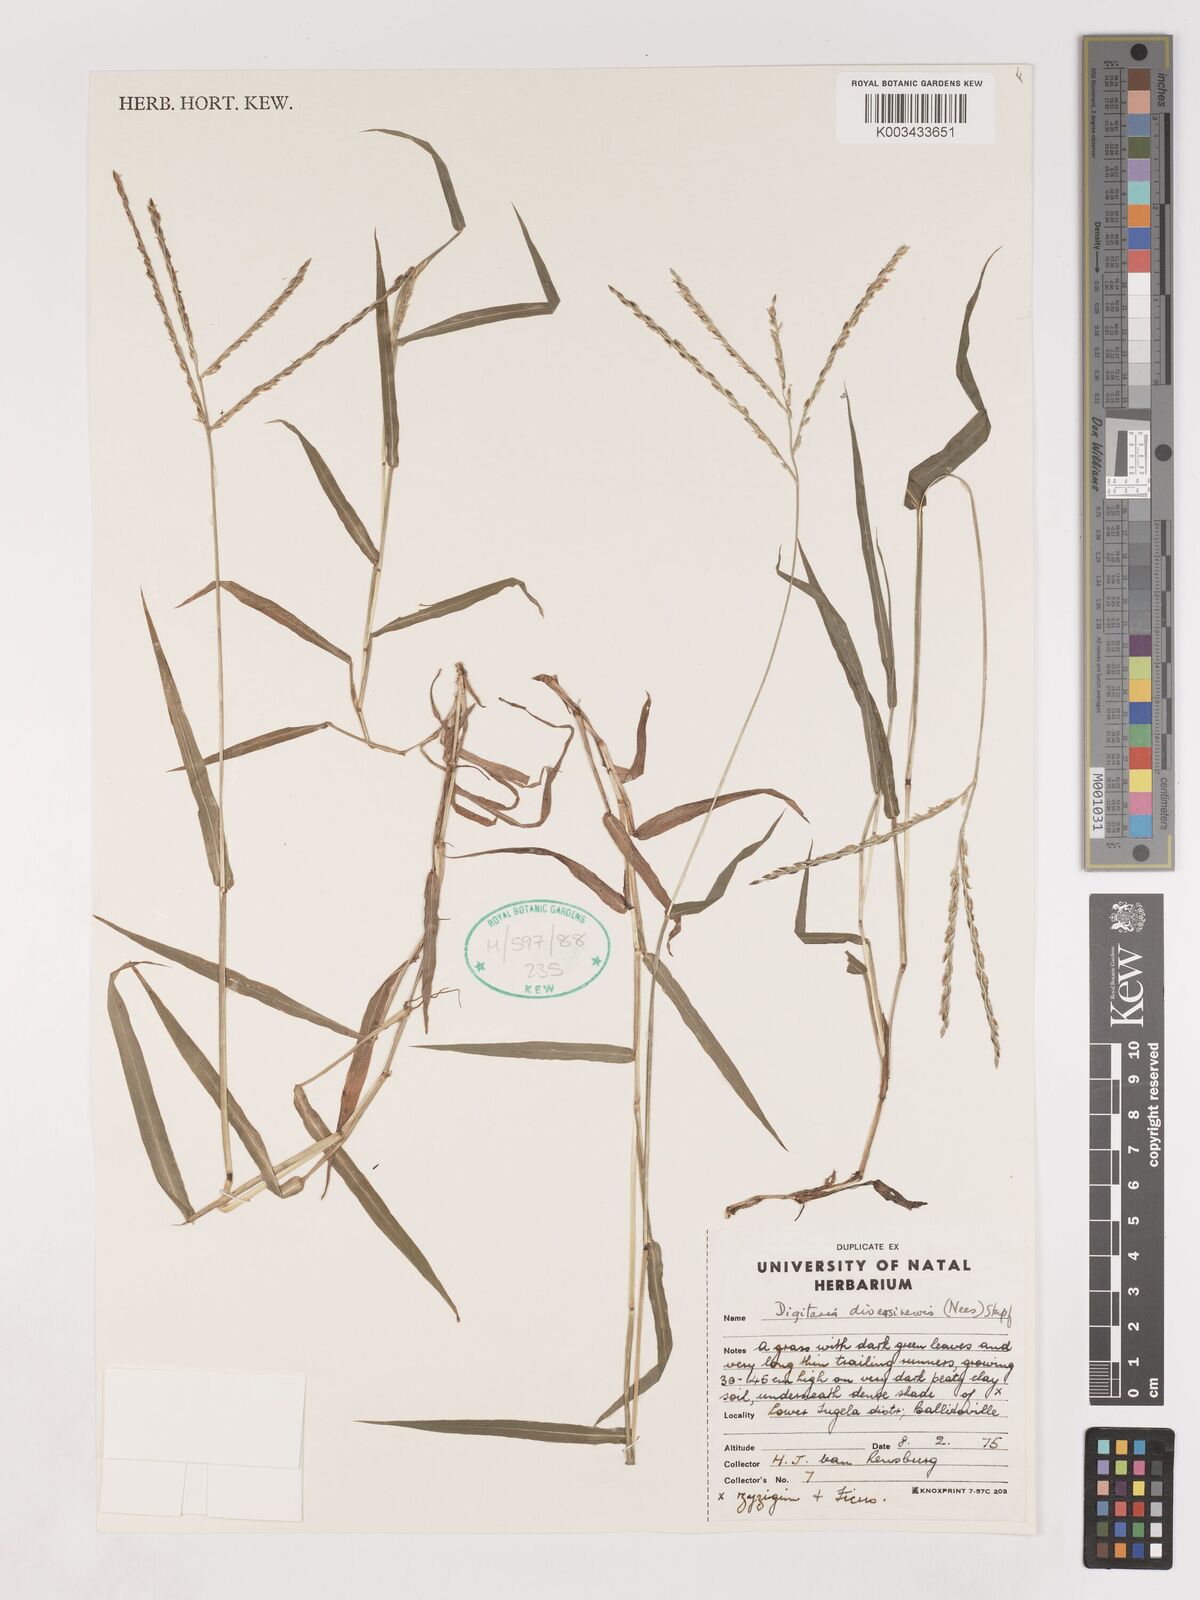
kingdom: Plantae
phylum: Tracheophyta
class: Liliopsida
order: Poales
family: Poaceae
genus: Digitaria
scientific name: Digitaria diversinervis
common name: Richmond finger grass
